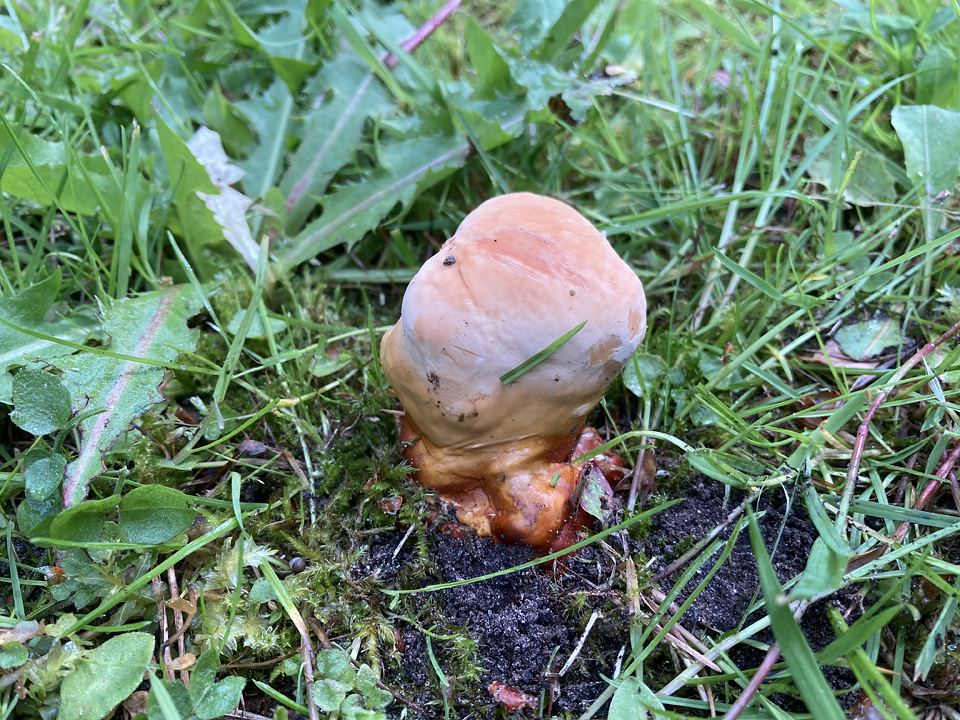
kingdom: Fungi
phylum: Basidiomycota
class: Agaricomycetes
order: Polyporales
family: Polyporaceae
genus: Ganoderma
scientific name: Ganoderma lucidum
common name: skinnende lakporesvamp
